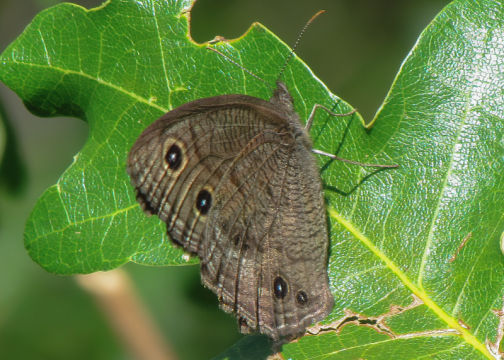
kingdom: Animalia
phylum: Arthropoda
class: Insecta
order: Lepidoptera
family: Nymphalidae
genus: Cercyonis
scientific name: Cercyonis pegala
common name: Common Wood-Nymph
